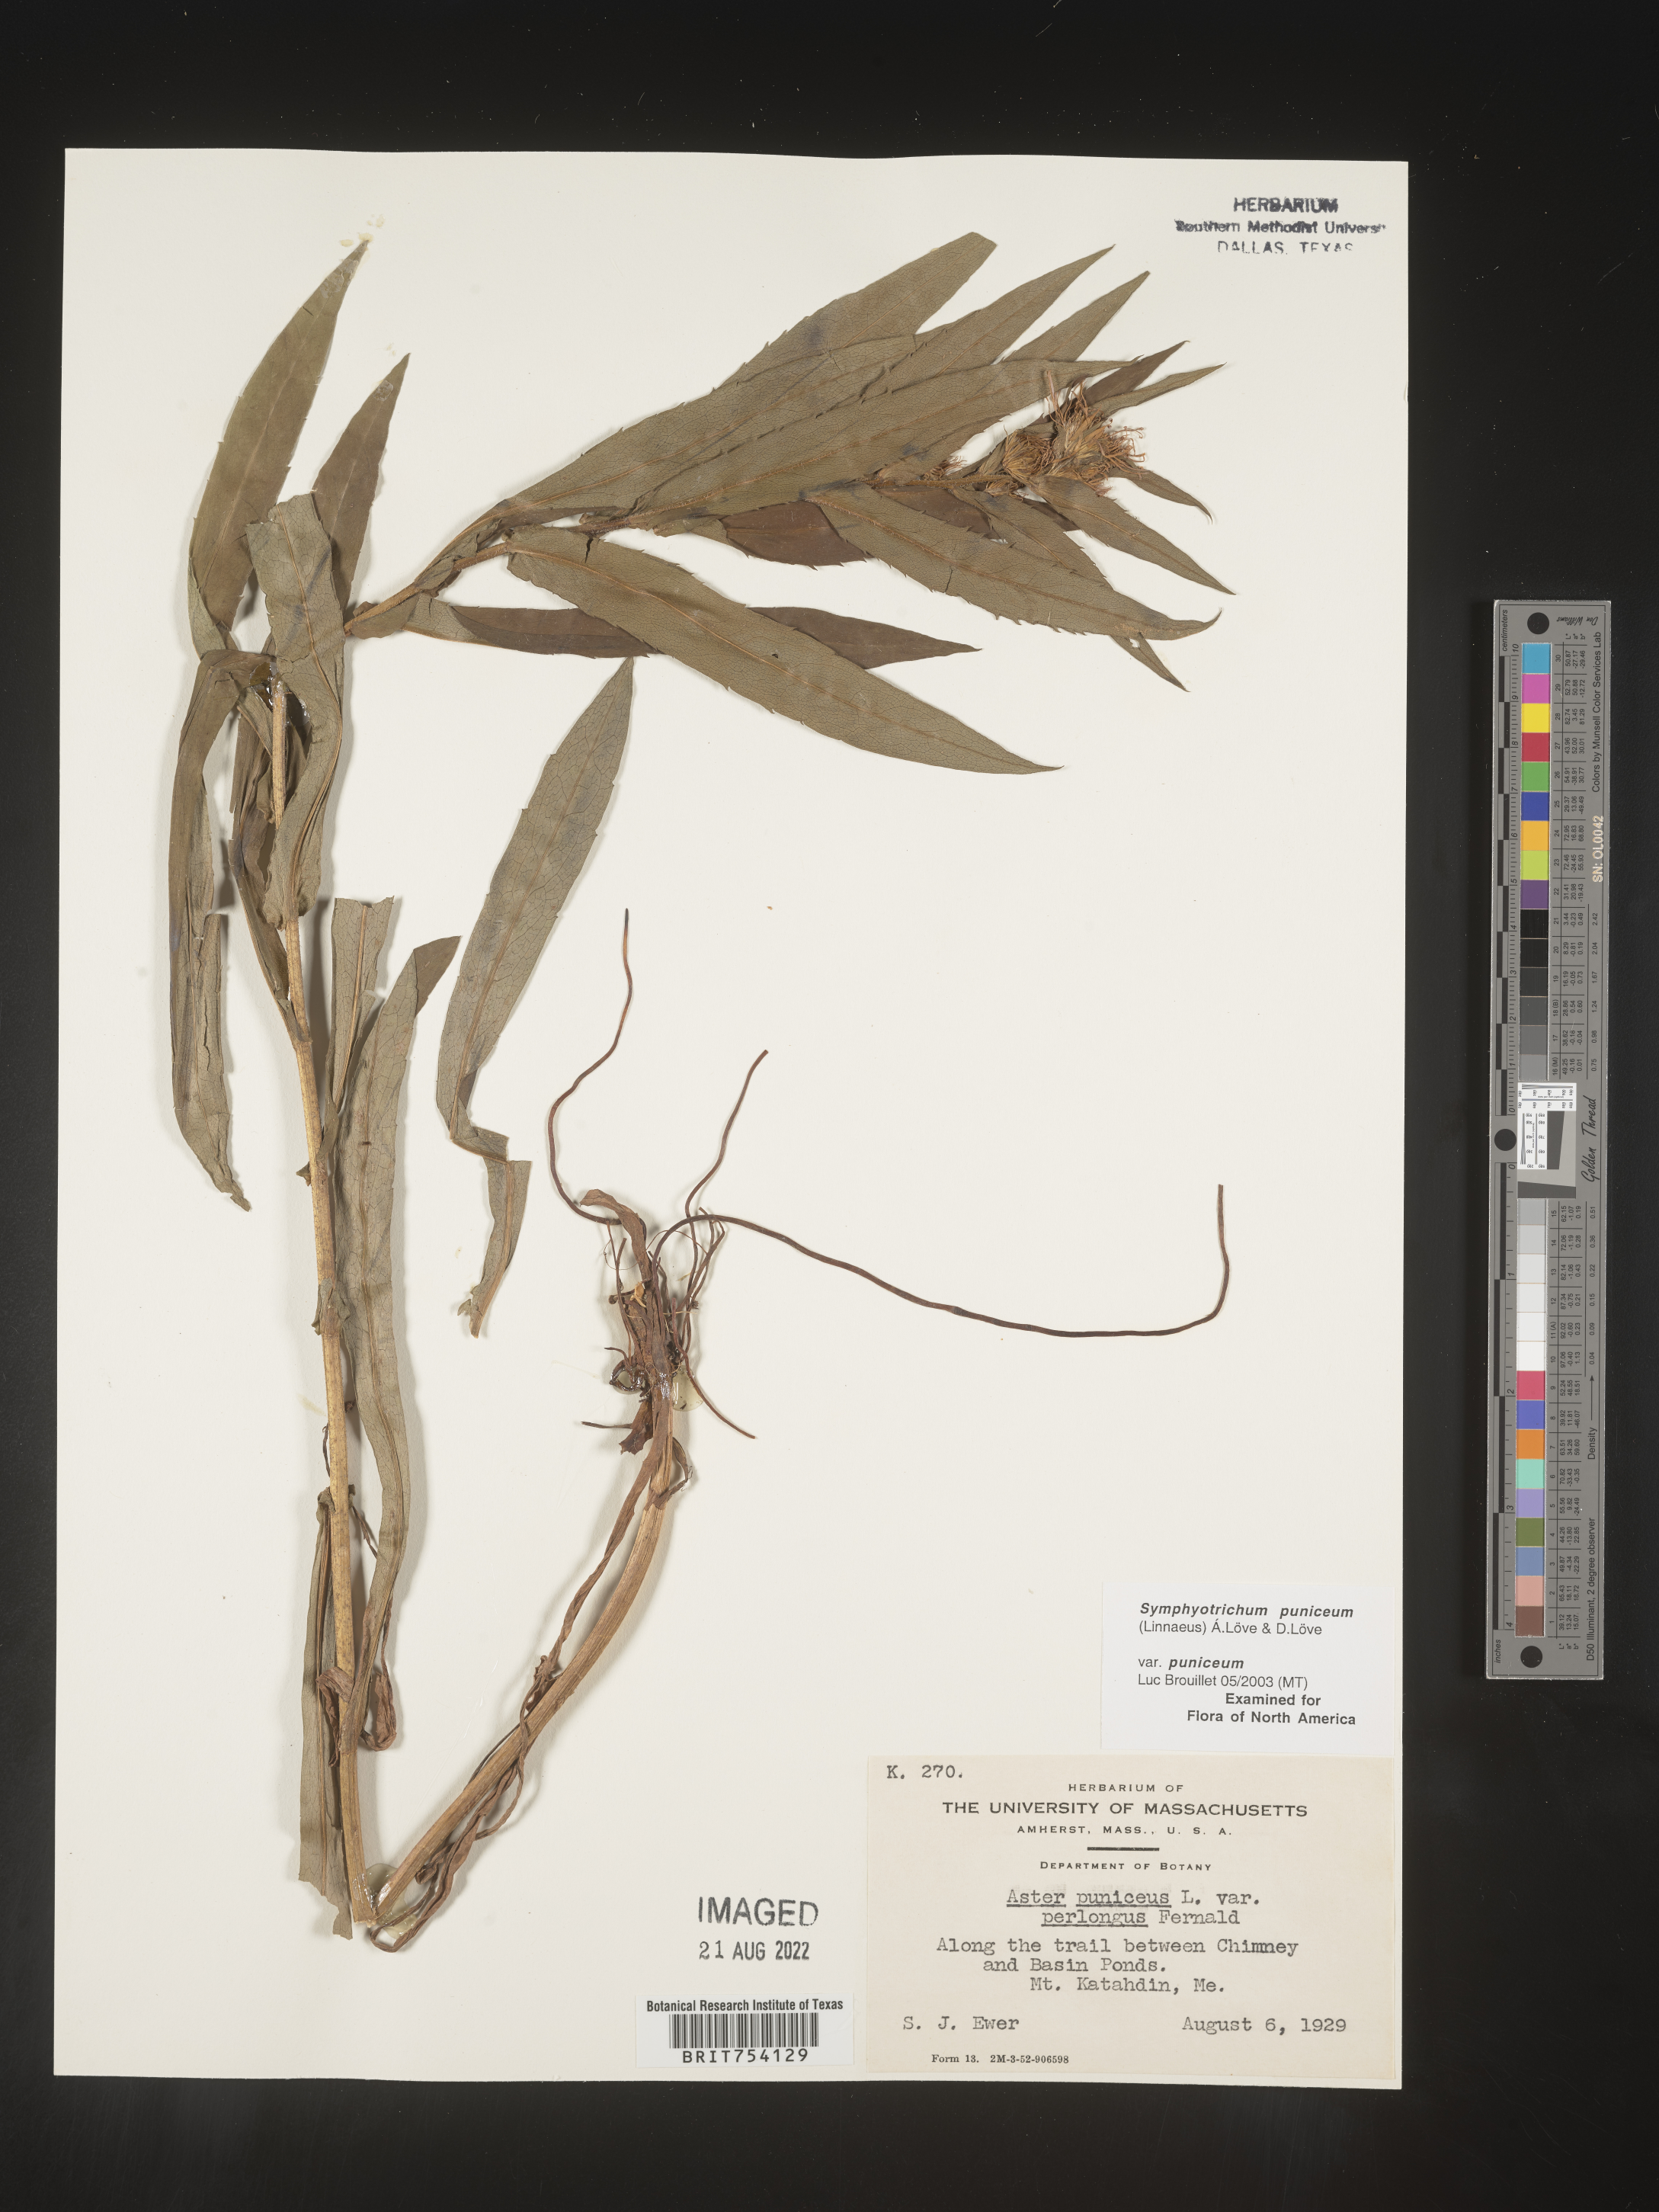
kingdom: Plantae
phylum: Tracheophyta
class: Magnoliopsida
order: Asterales
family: Asteraceae
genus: Symphyotrichum
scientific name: Symphyotrichum puniceum
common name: Bog aster
